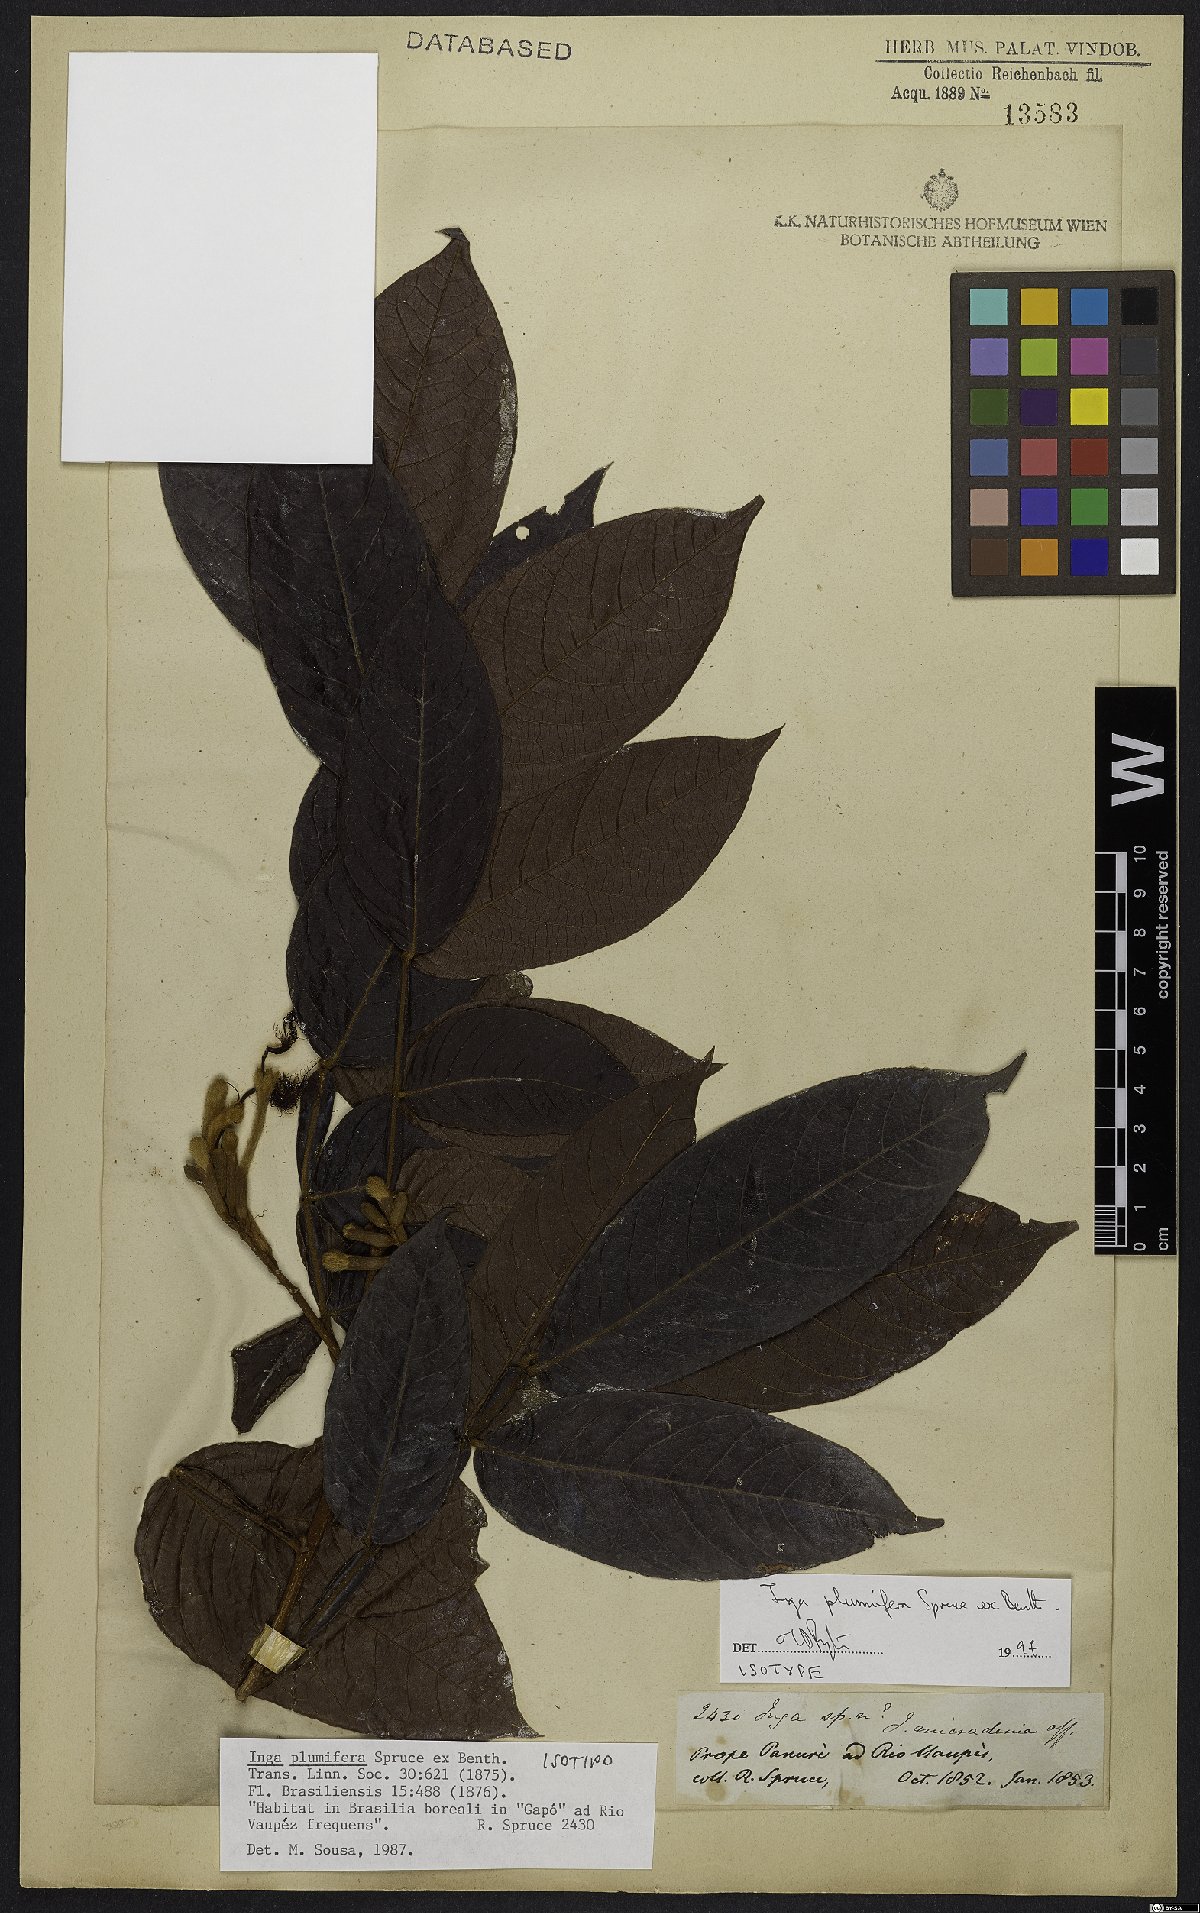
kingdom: Plantae
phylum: Tracheophyta
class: Magnoliopsida
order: Fabales
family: Fabaceae
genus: Inga
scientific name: Inga plumifera
